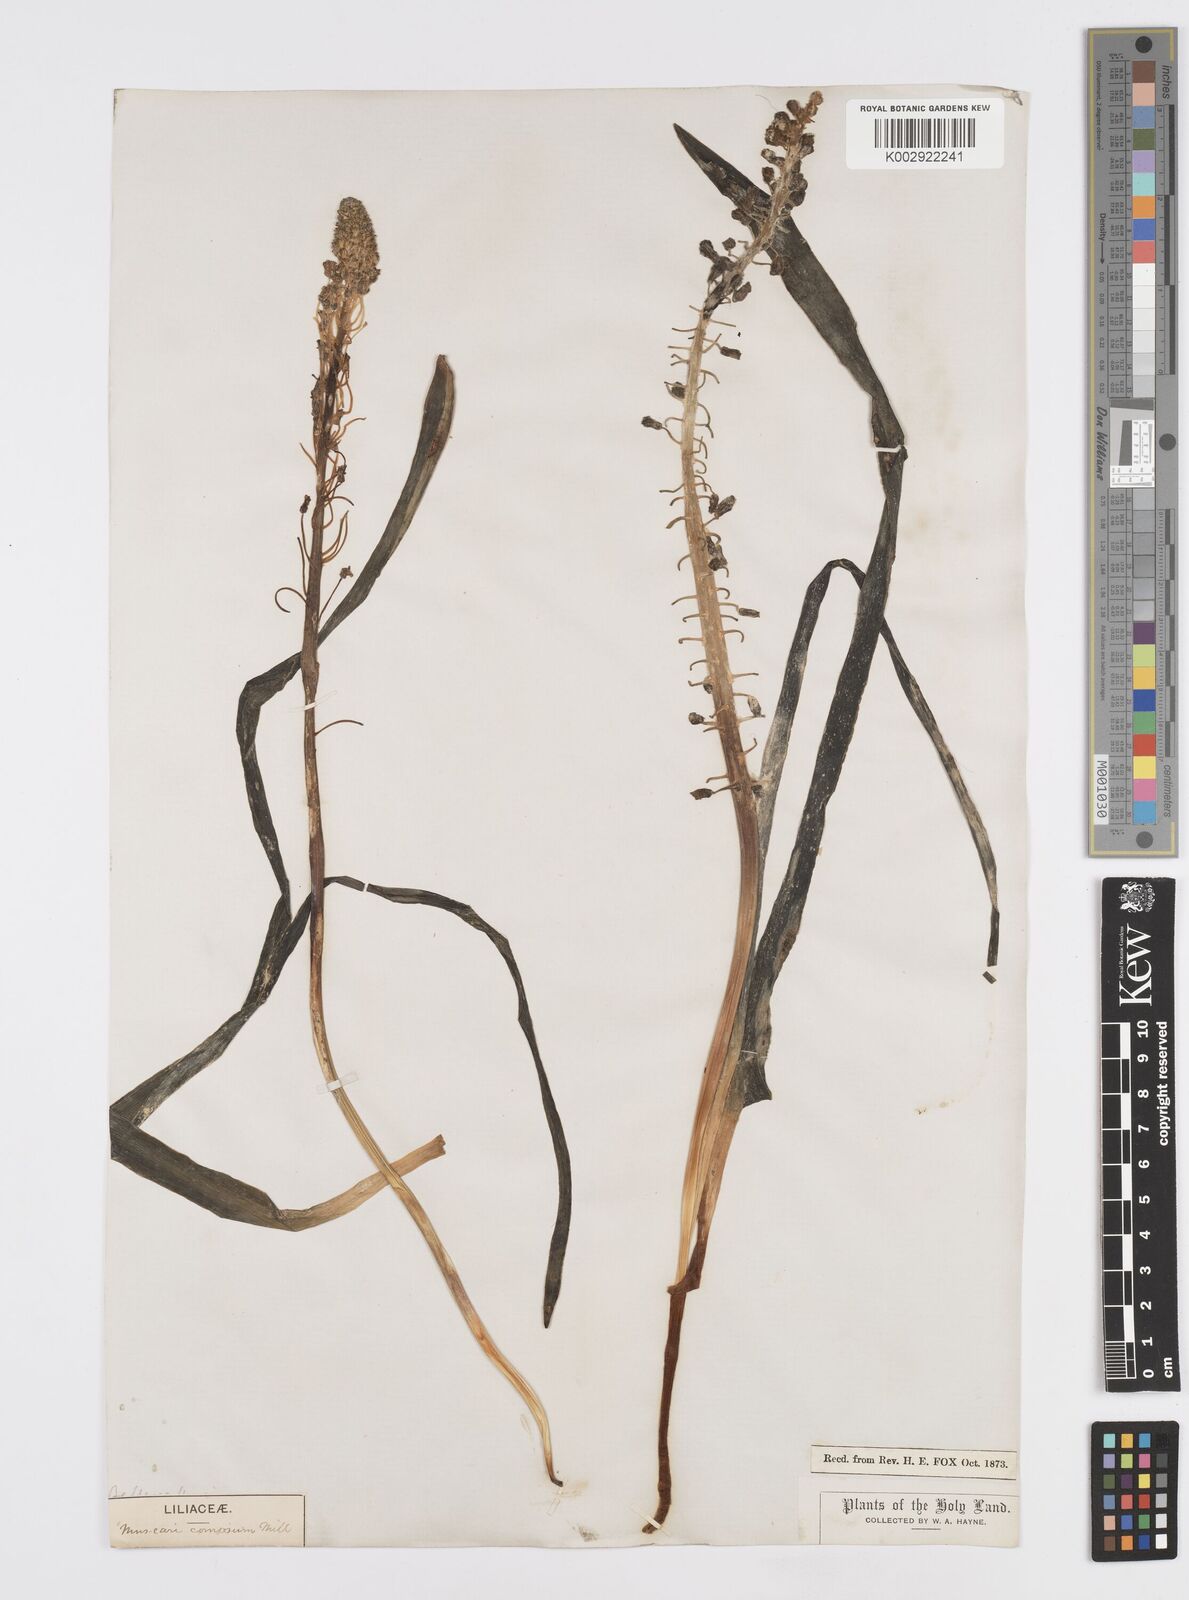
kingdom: Plantae
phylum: Tracheophyta
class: Liliopsida
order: Asparagales
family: Asparagaceae
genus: Muscari
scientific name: Muscari comosum
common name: Tassel hyacinth
